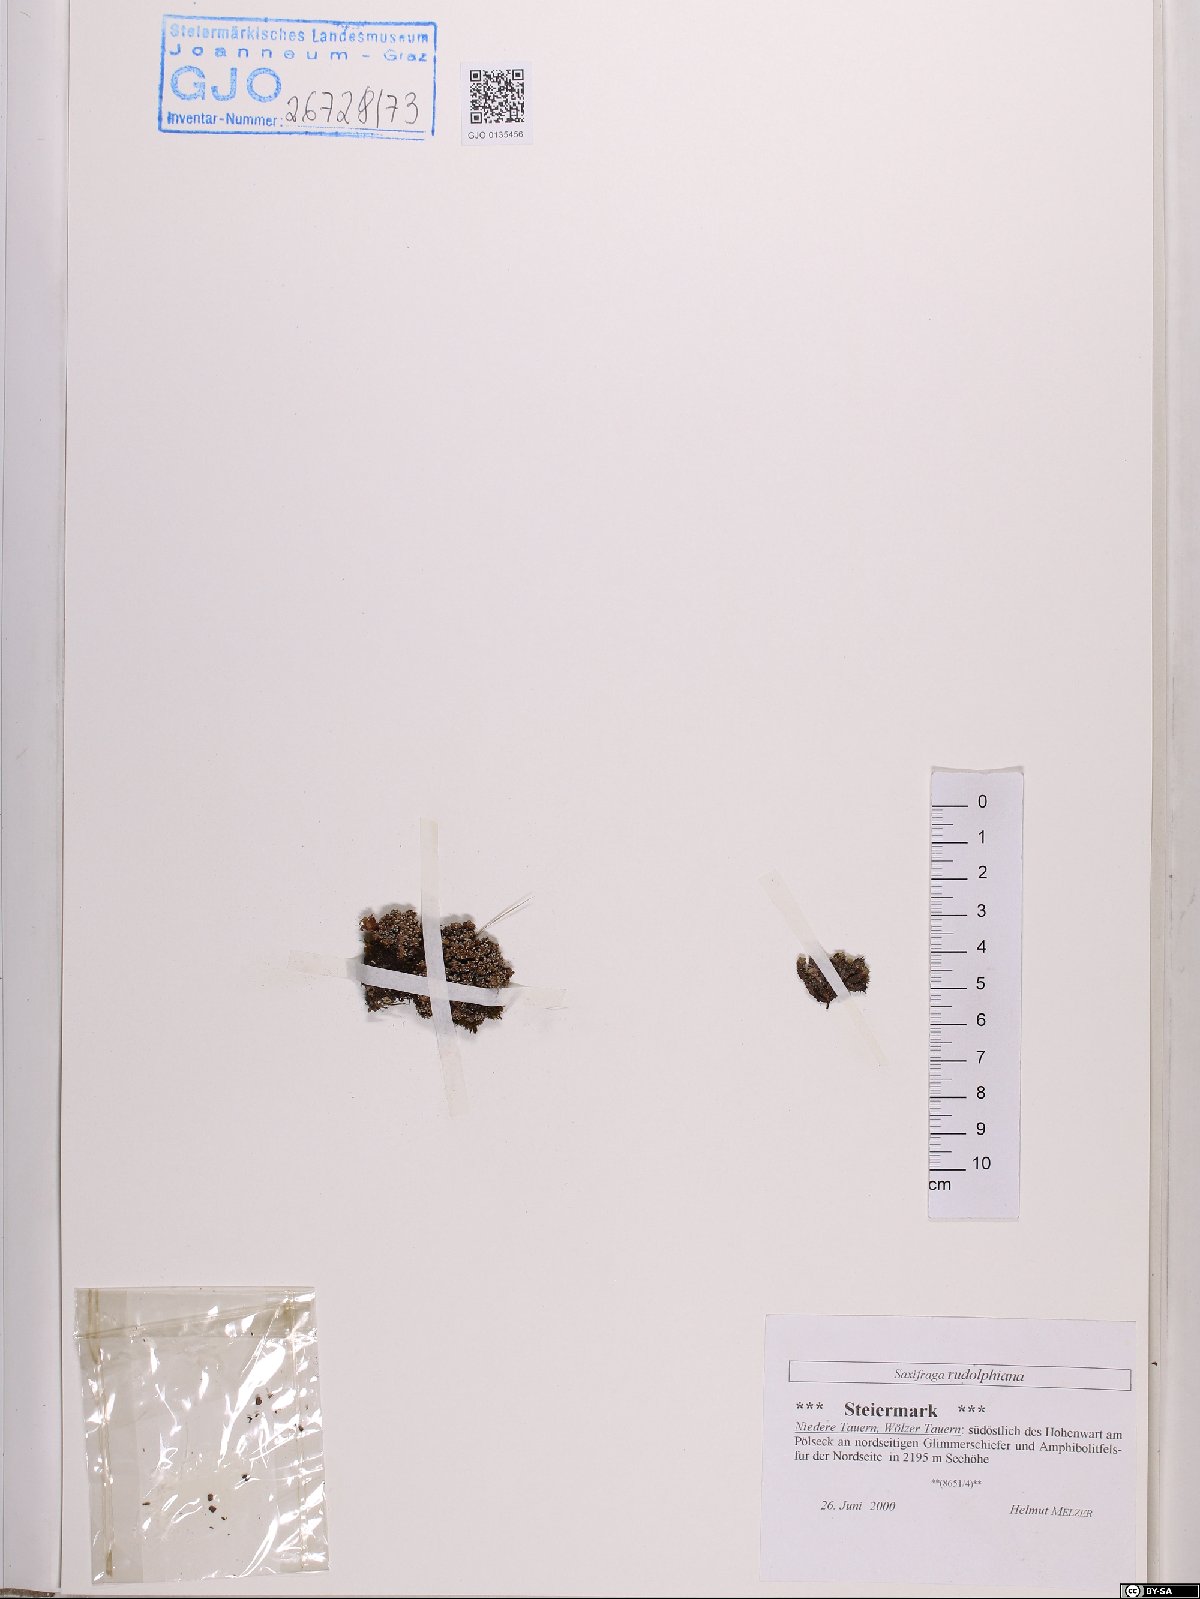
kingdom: Plantae
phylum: Tracheophyta
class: Magnoliopsida
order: Saxifragales
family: Saxifragaceae
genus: Saxifraga
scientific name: Saxifraga oppositifolia
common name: Purple saxifrage
